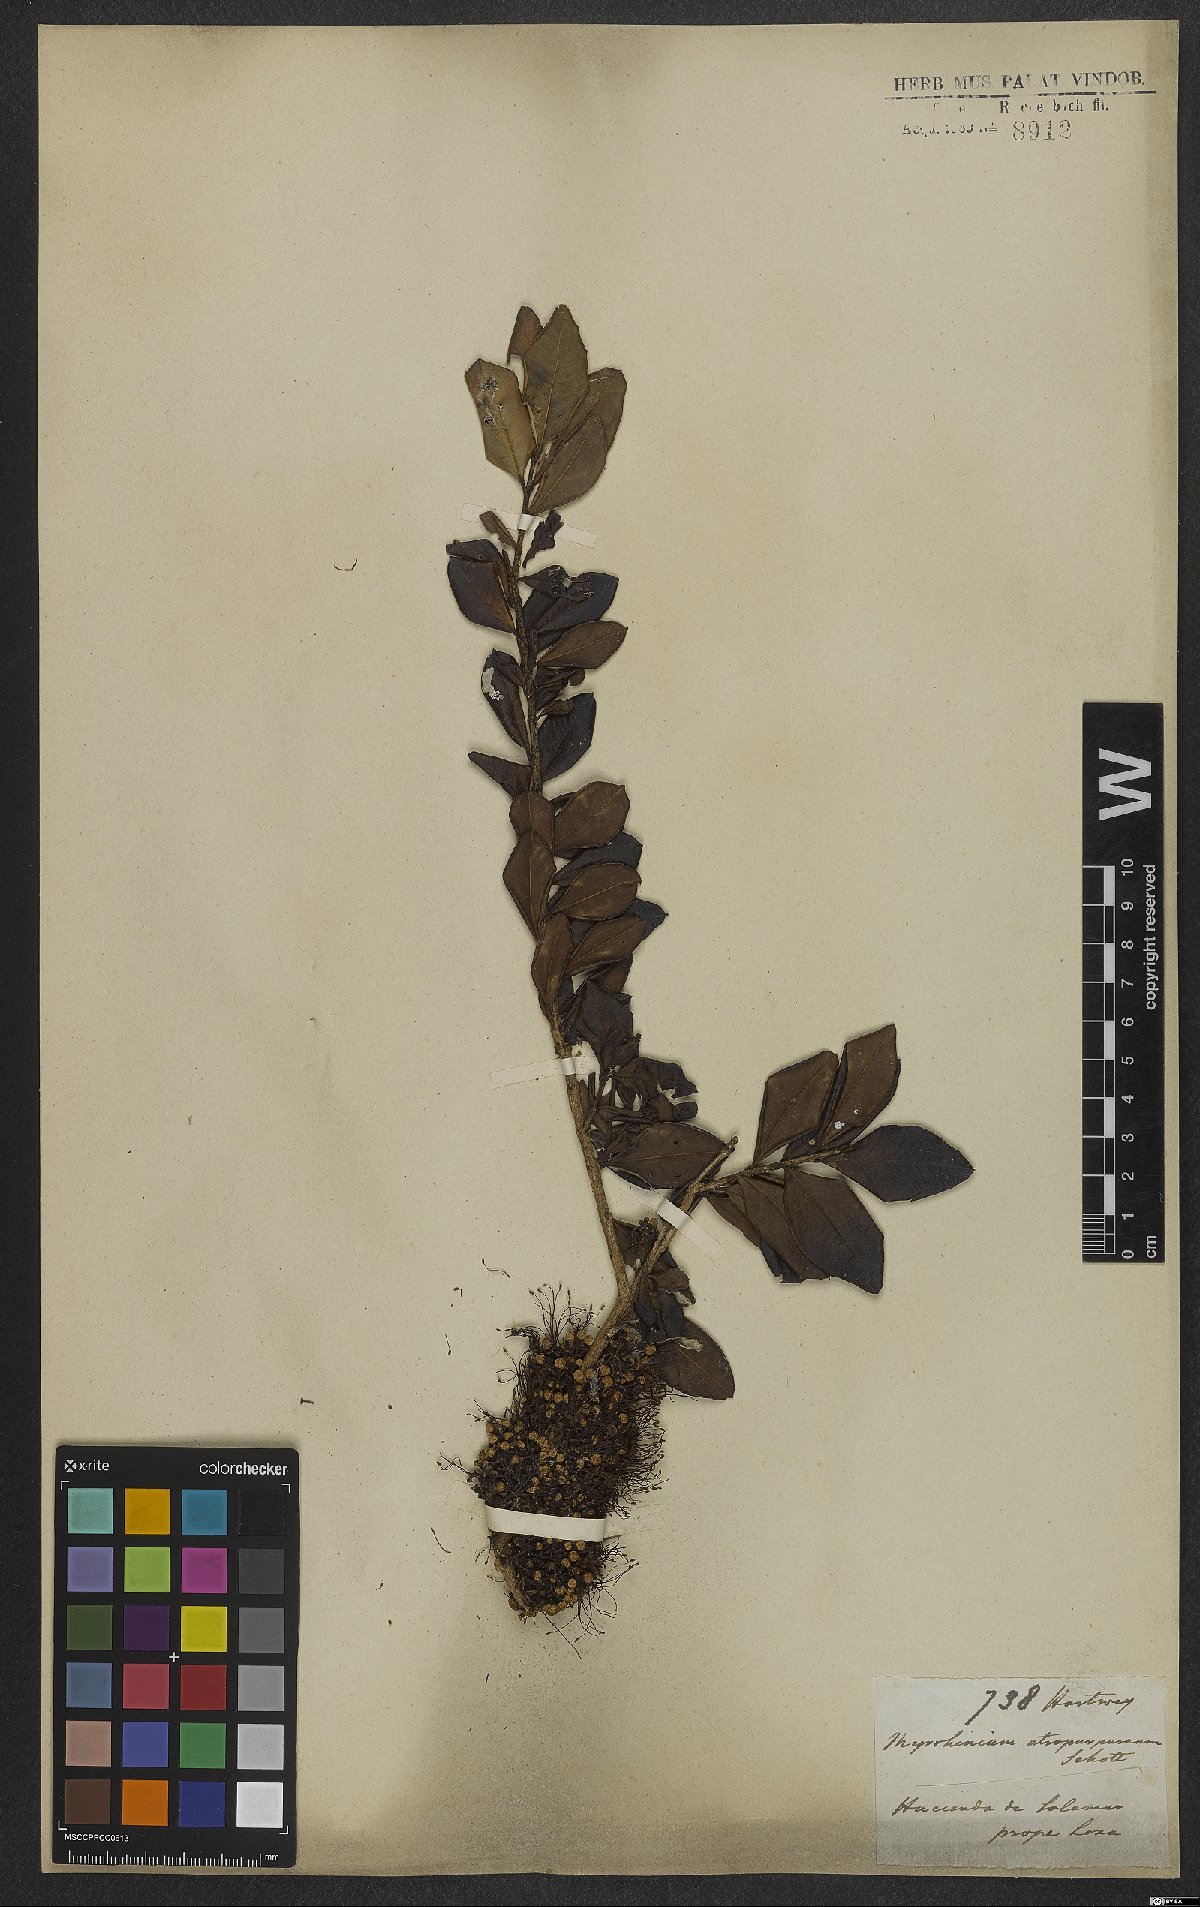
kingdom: Plantae
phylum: Tracheophyta
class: Magnoliopsida
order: Myrtales
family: Myrtaceae
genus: Myrrhinium
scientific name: Myrrhinium atropurpureum
